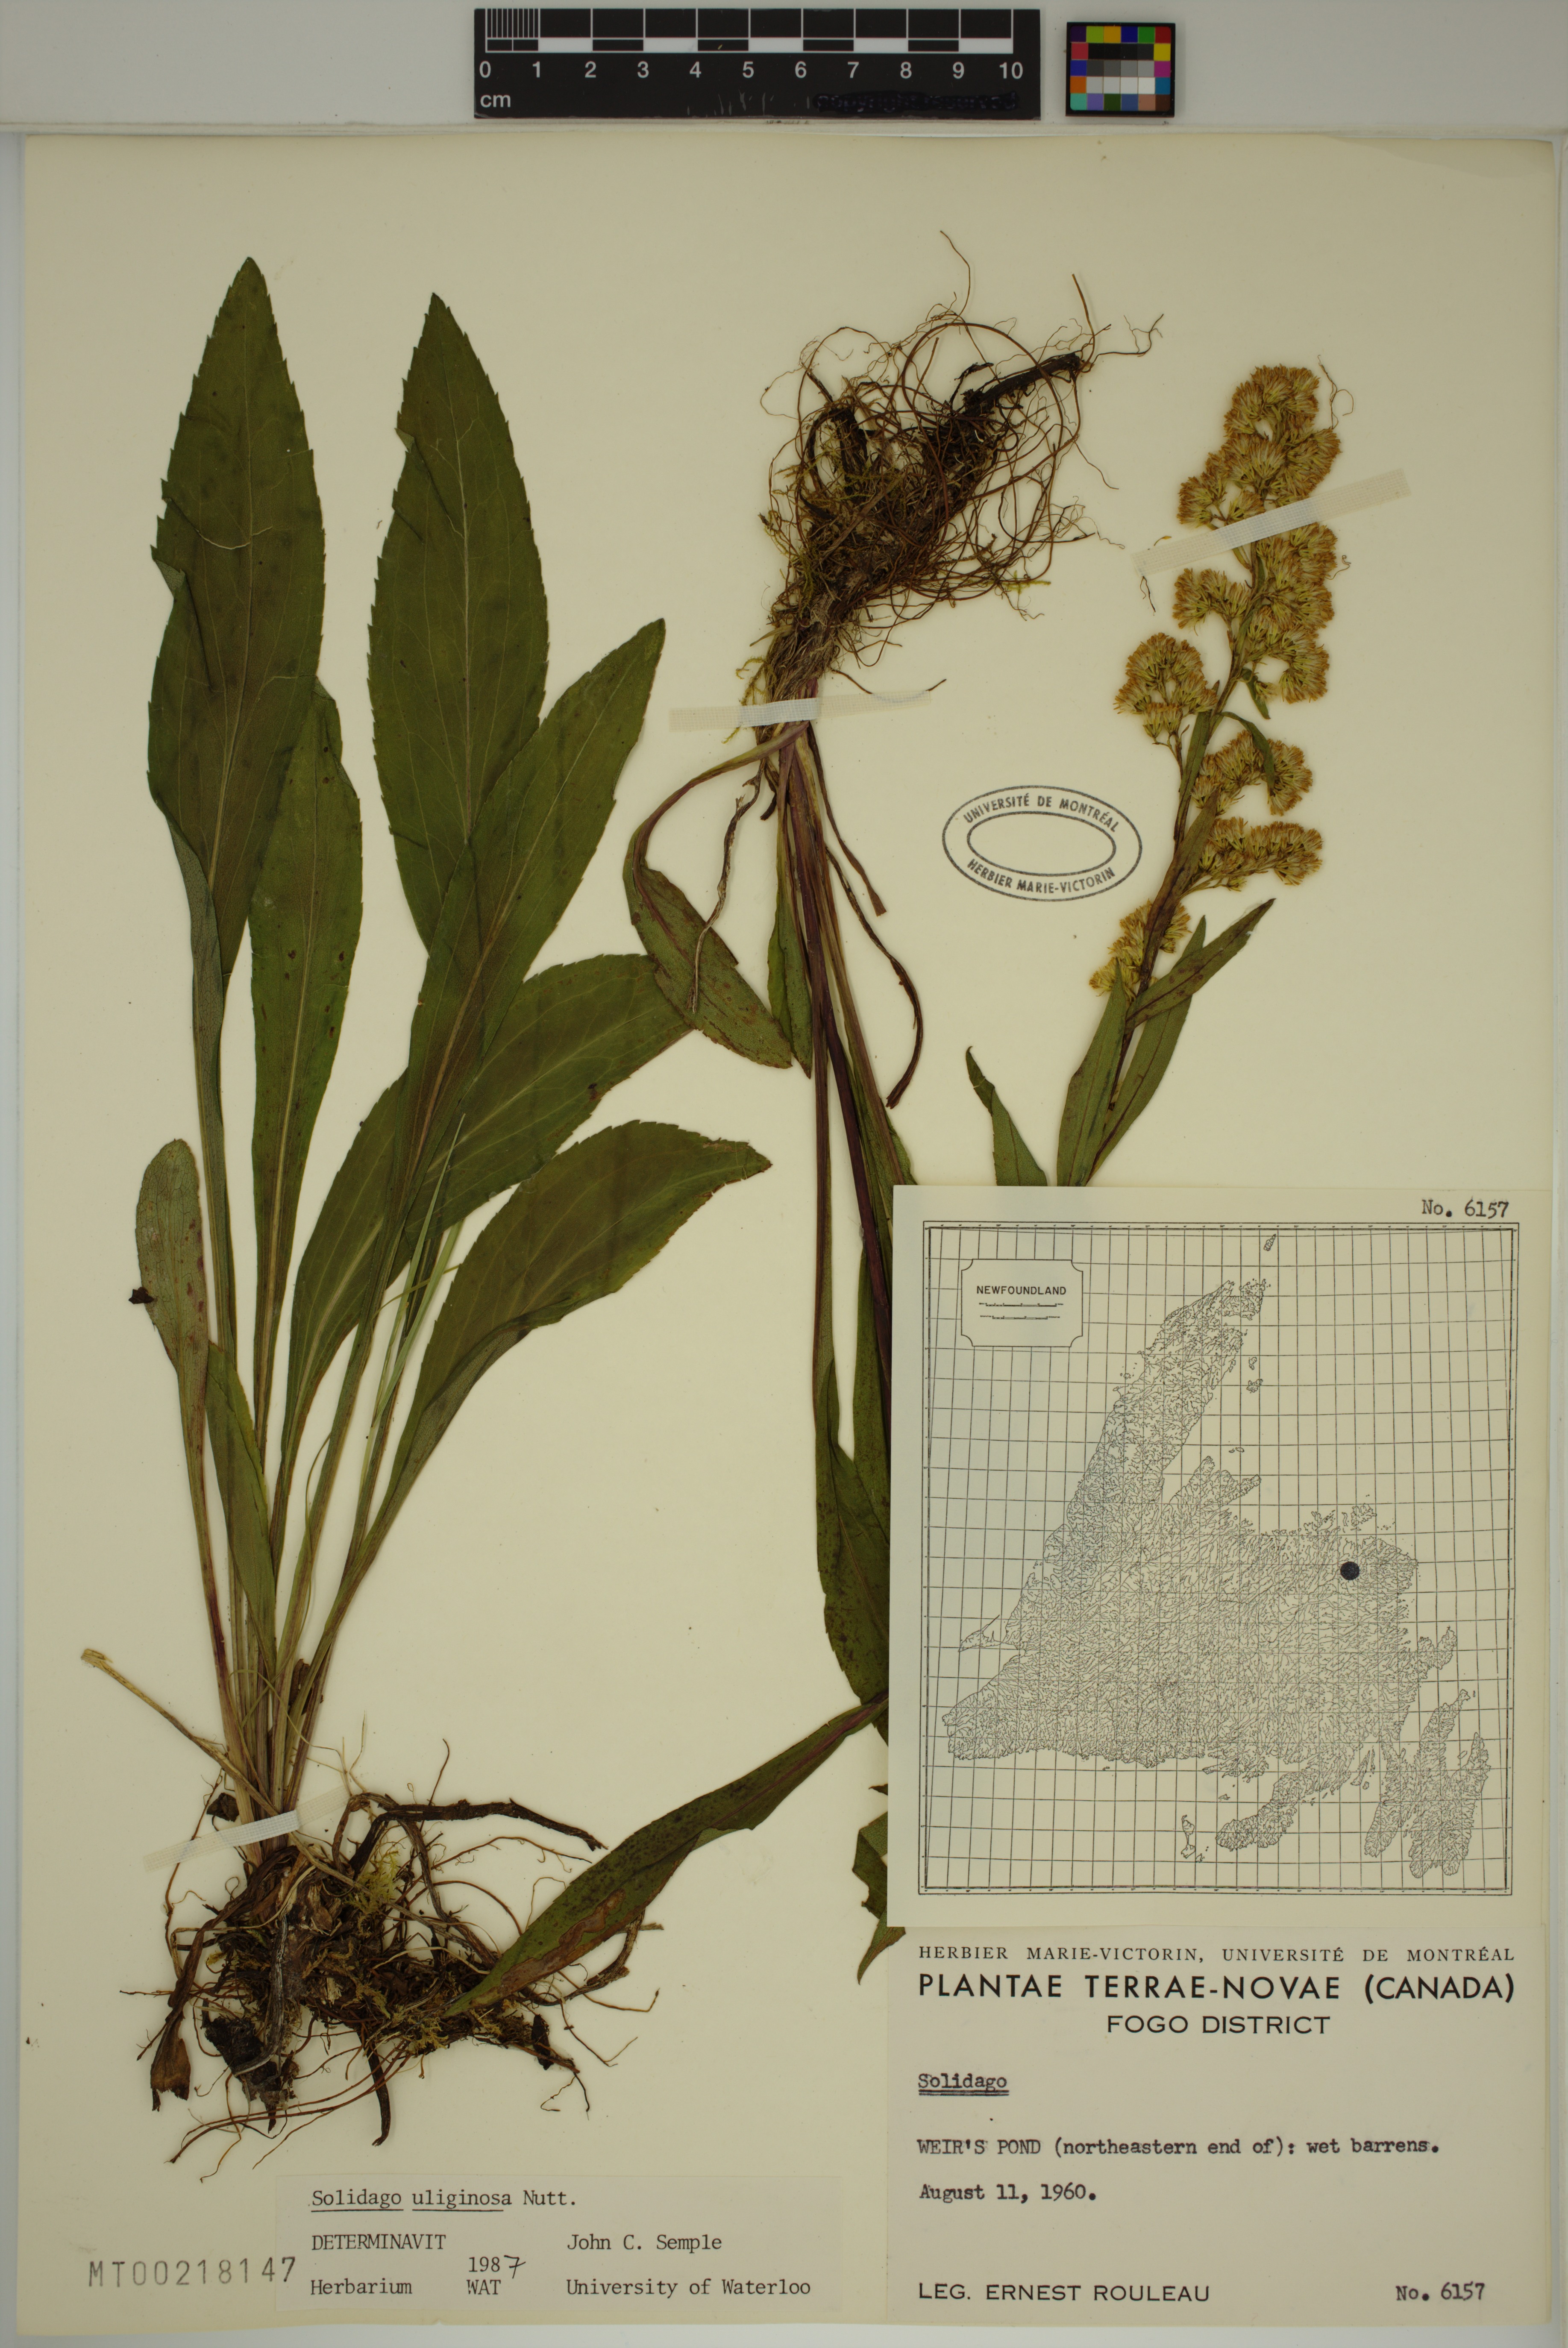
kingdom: Plantae
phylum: Tracheophyta
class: Magnoliopsida
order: Asterales
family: Asteraceae
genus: Solidago
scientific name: Solidago uliginosa
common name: Bog goldenrod
